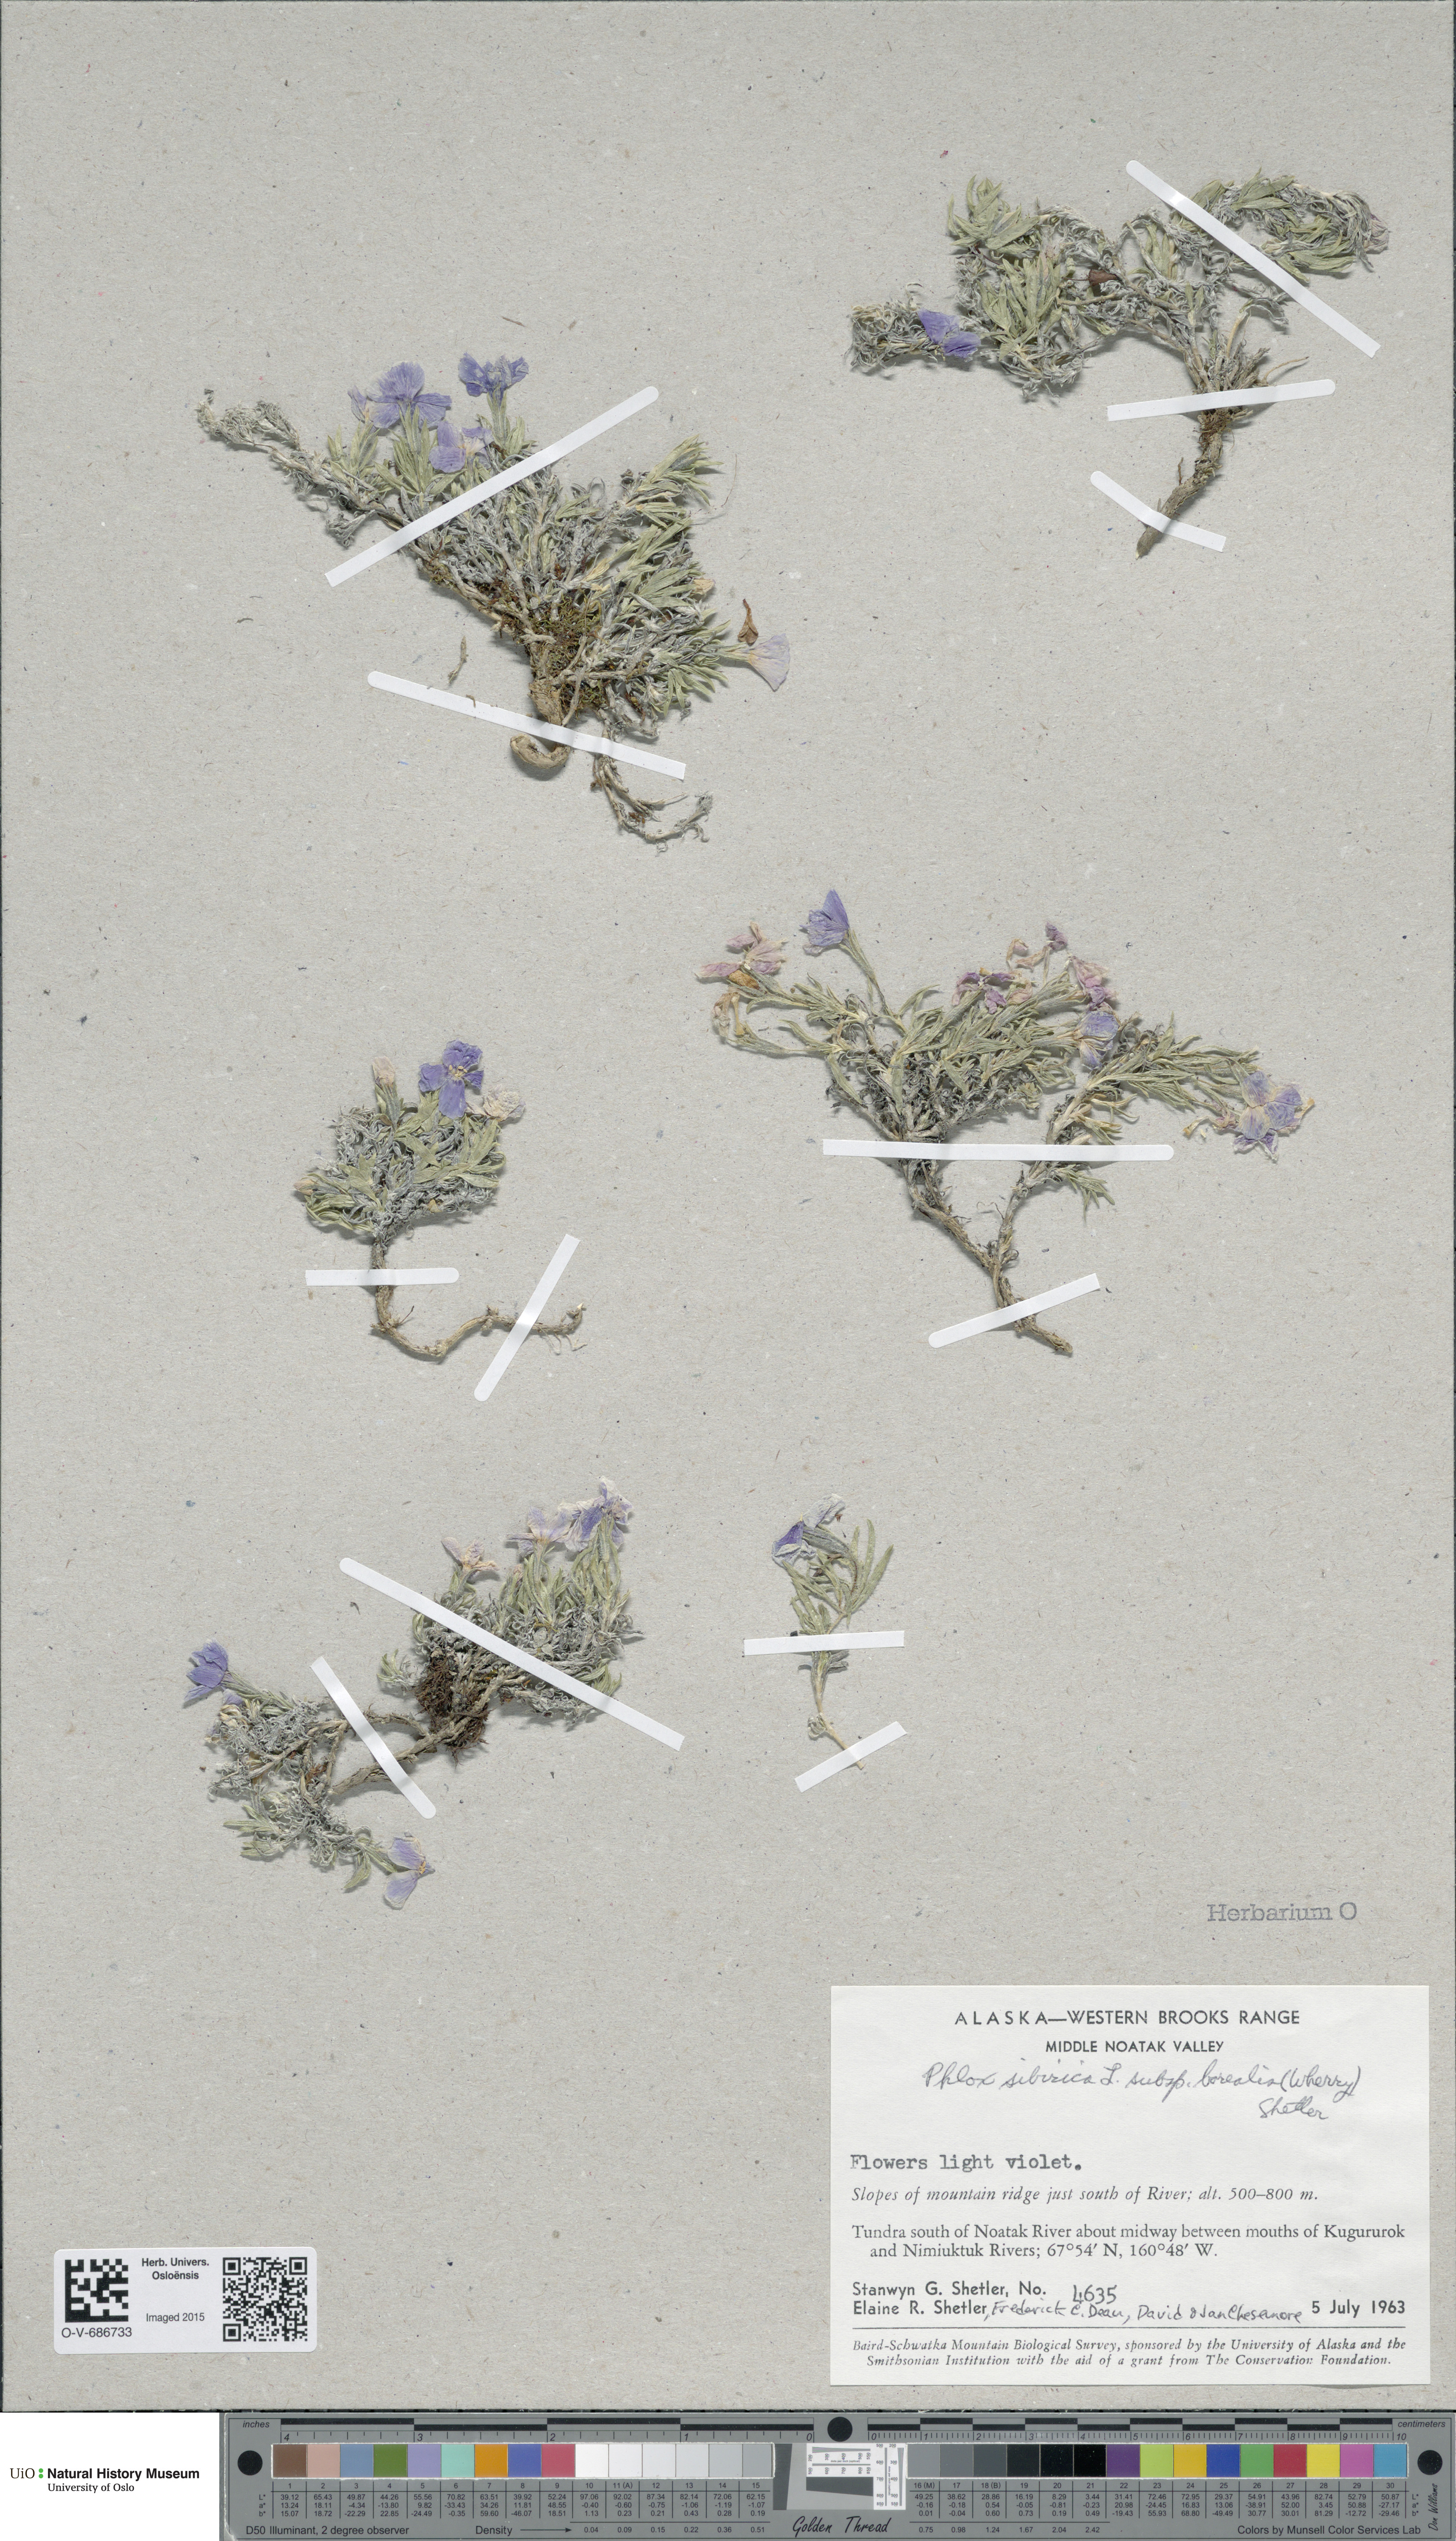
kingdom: Plantae
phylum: Tracheophyta
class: Magnoliopsida
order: Ericales
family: Polemoniaceae
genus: Phlox
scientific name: Phlox richardsonii
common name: Richardson's phlox
